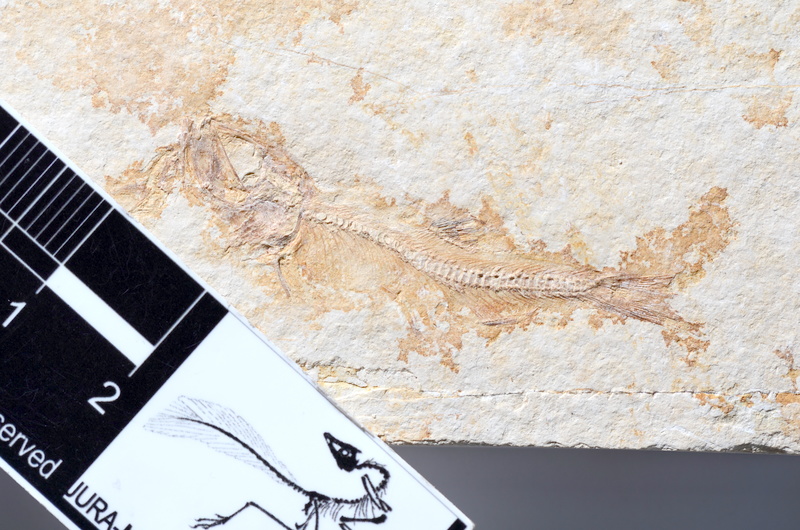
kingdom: Animalia
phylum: Chordata
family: Ascalaboidae
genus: Tharsis
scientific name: Tharsis dubius
